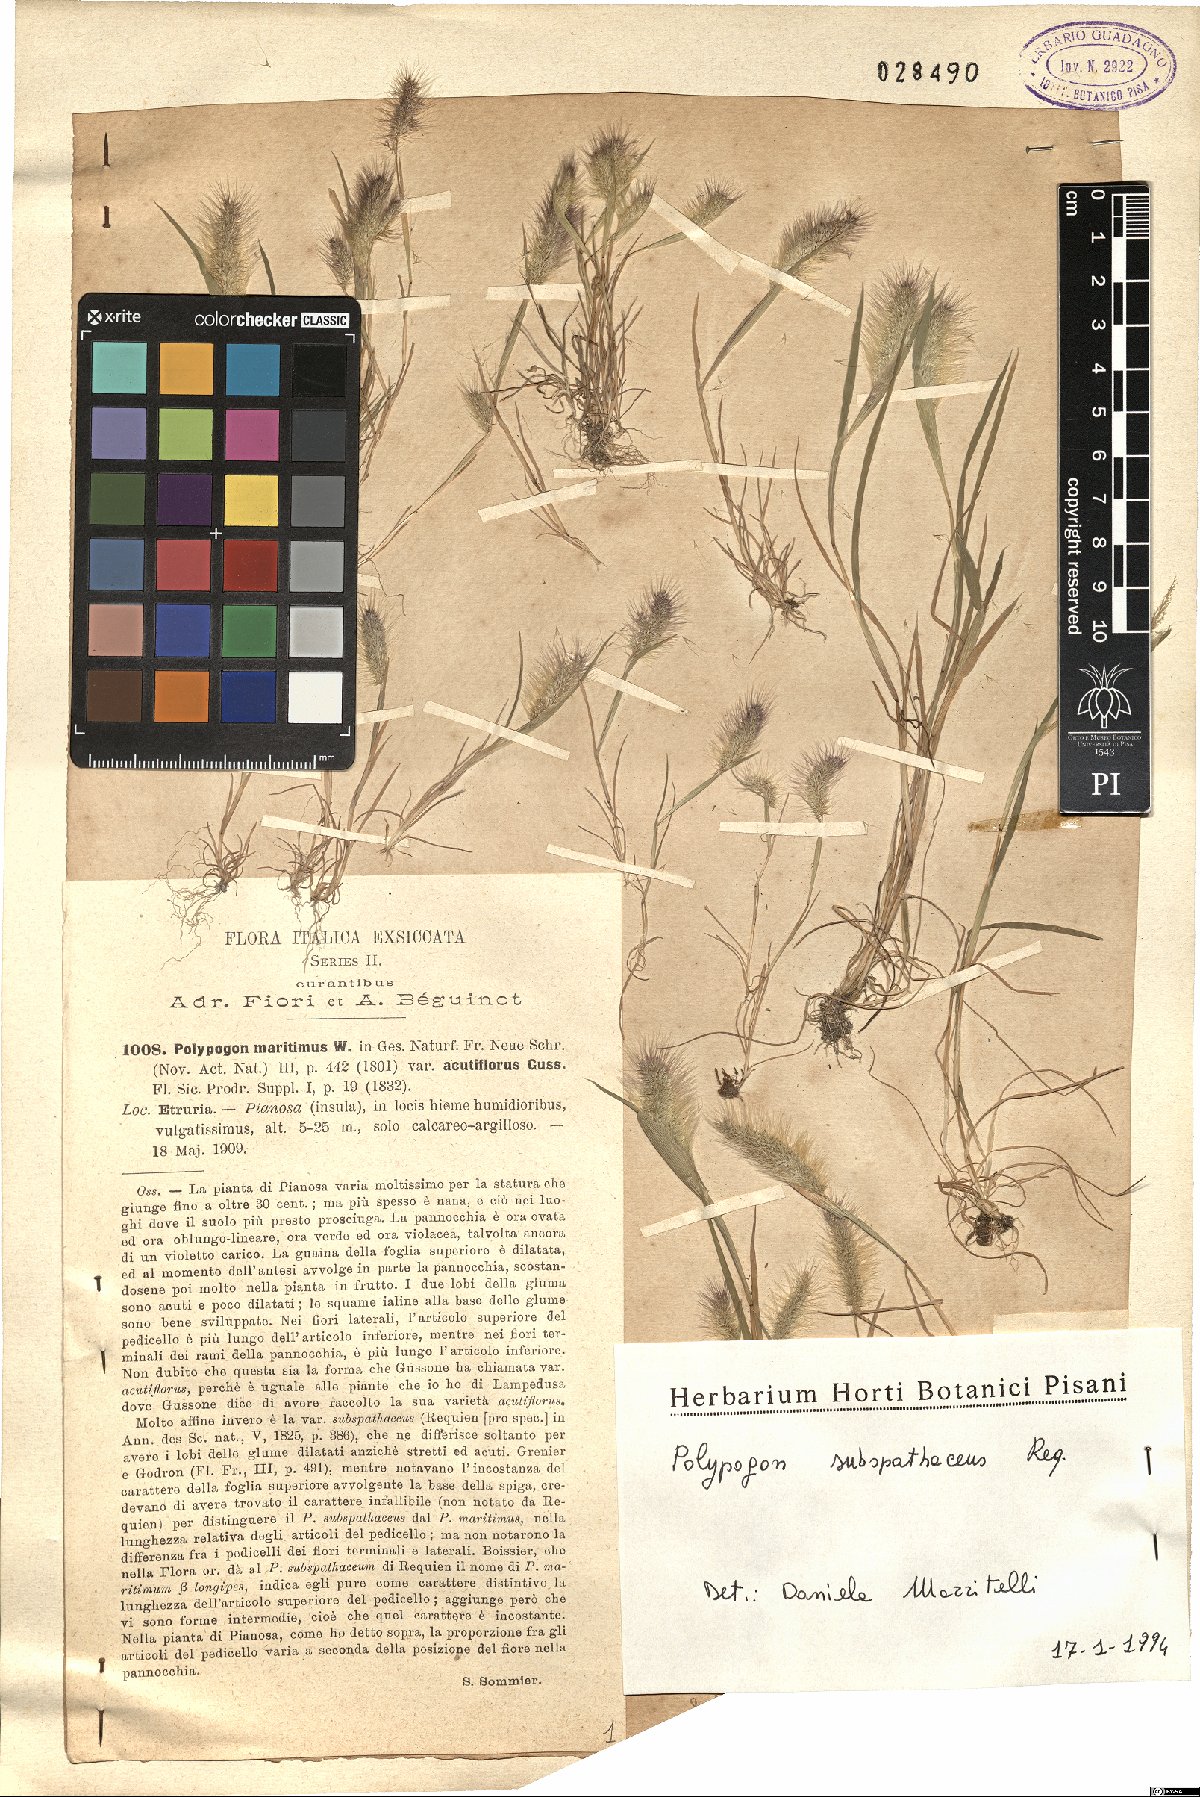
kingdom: Plantae
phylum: Tracheophyta
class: Liliopsida
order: Poales
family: Poaceae
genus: Polypogon
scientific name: Polypogon subspathaceus
